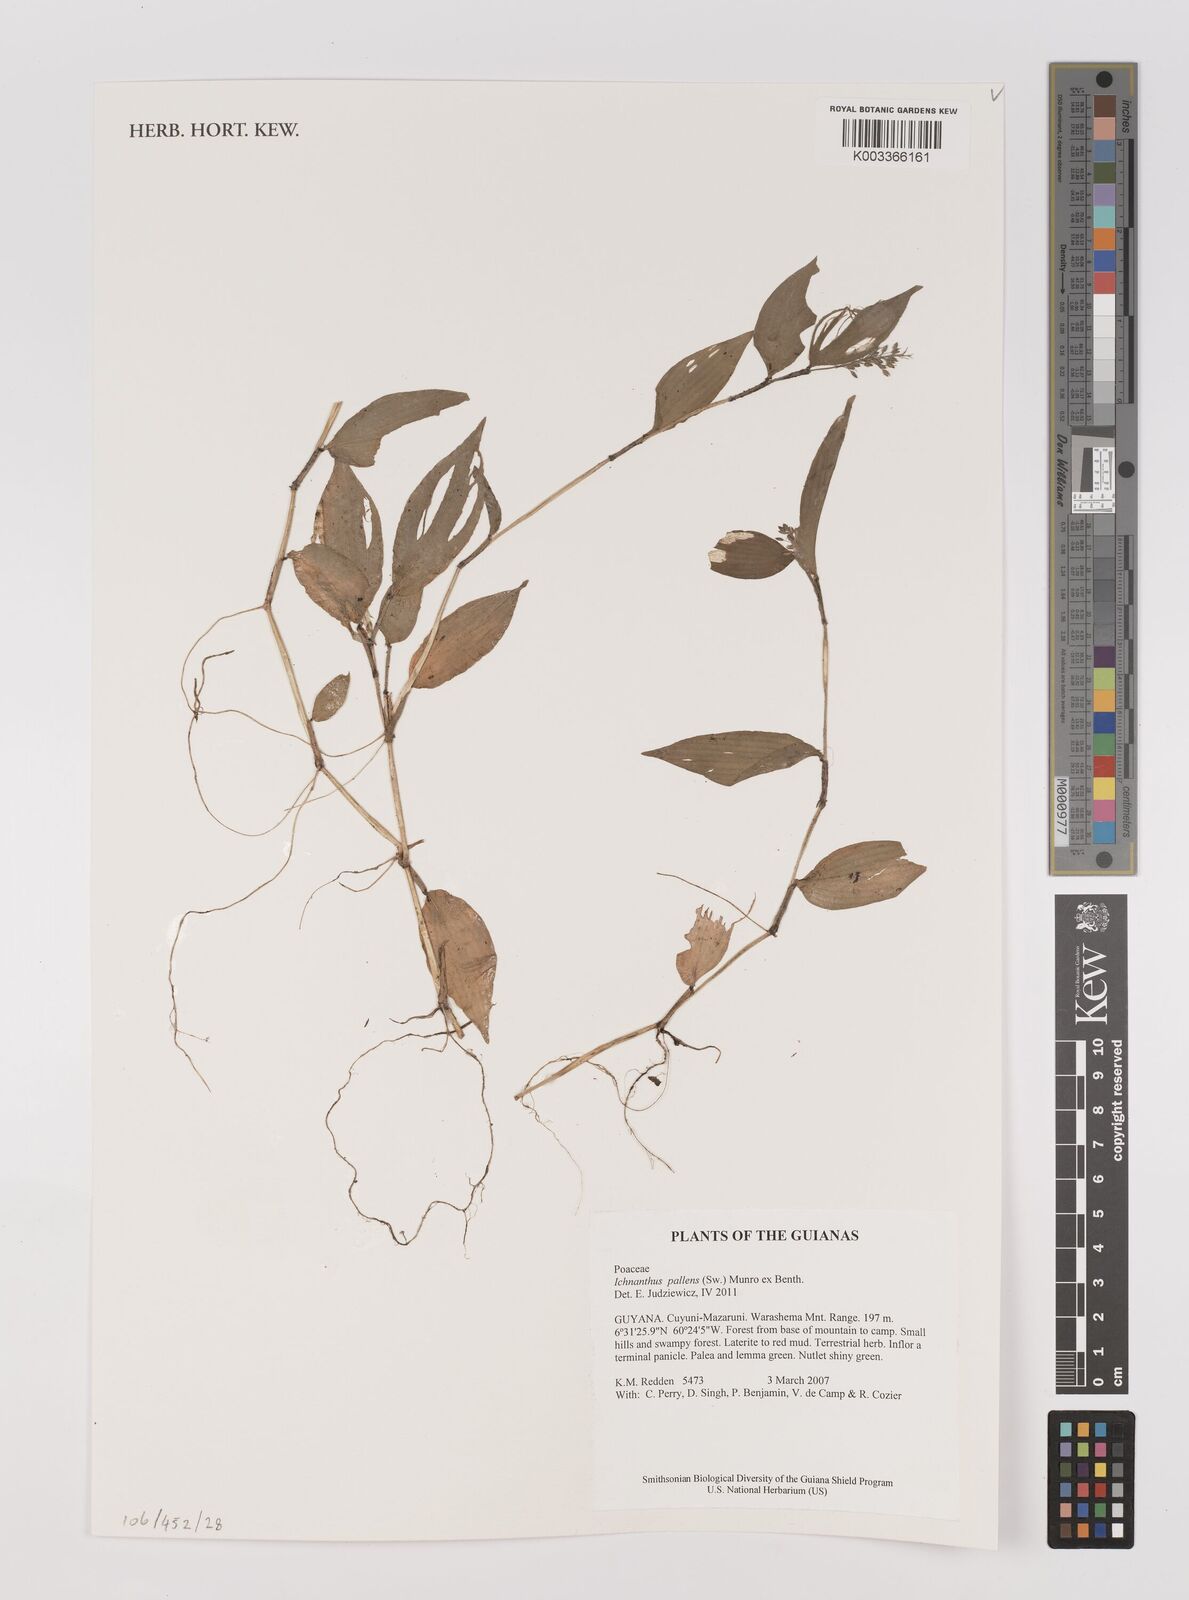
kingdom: Plantae
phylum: Tracheophyta
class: Liliopsida
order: Poales
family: Poaceae
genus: Ichnanthus
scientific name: Ichnanthus pallens
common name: Water grass
